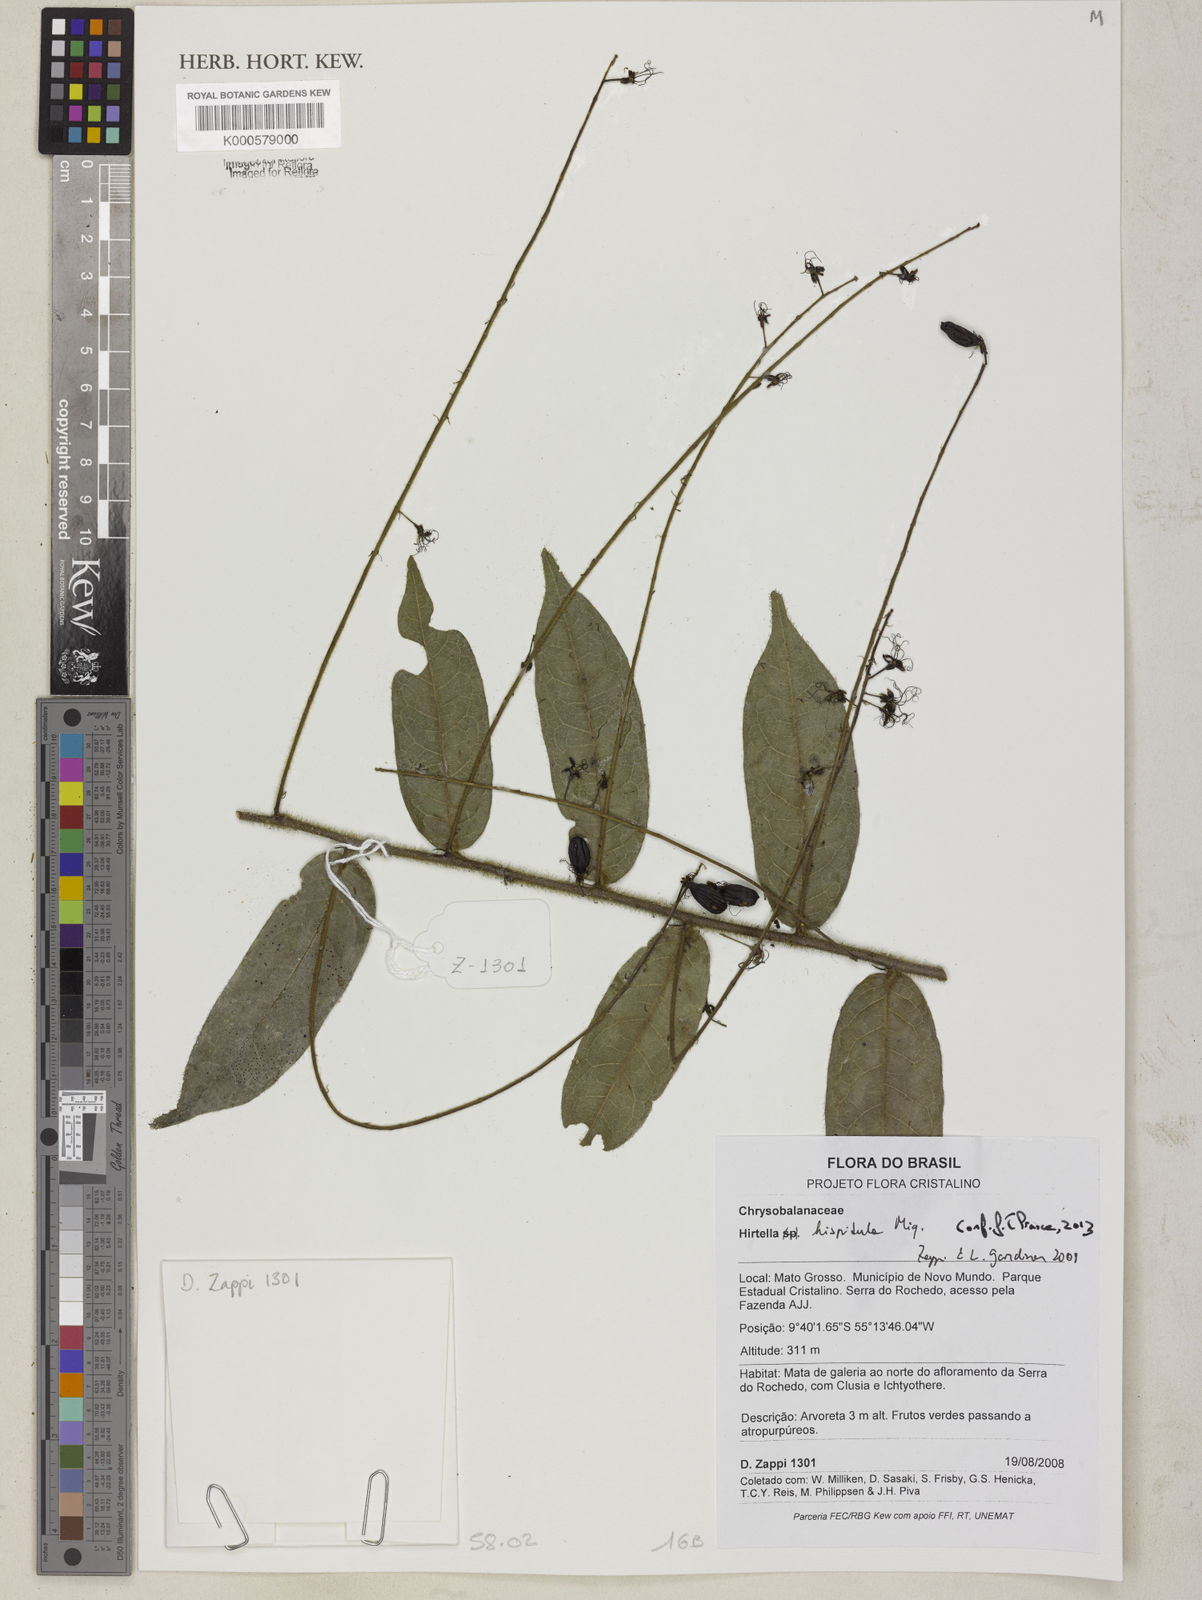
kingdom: Plantae
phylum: Tracheophyta
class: Magnoliopsida
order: Malpighiales
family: Chrysobalanaceae
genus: Hirtella
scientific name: Hirtella hispidula
